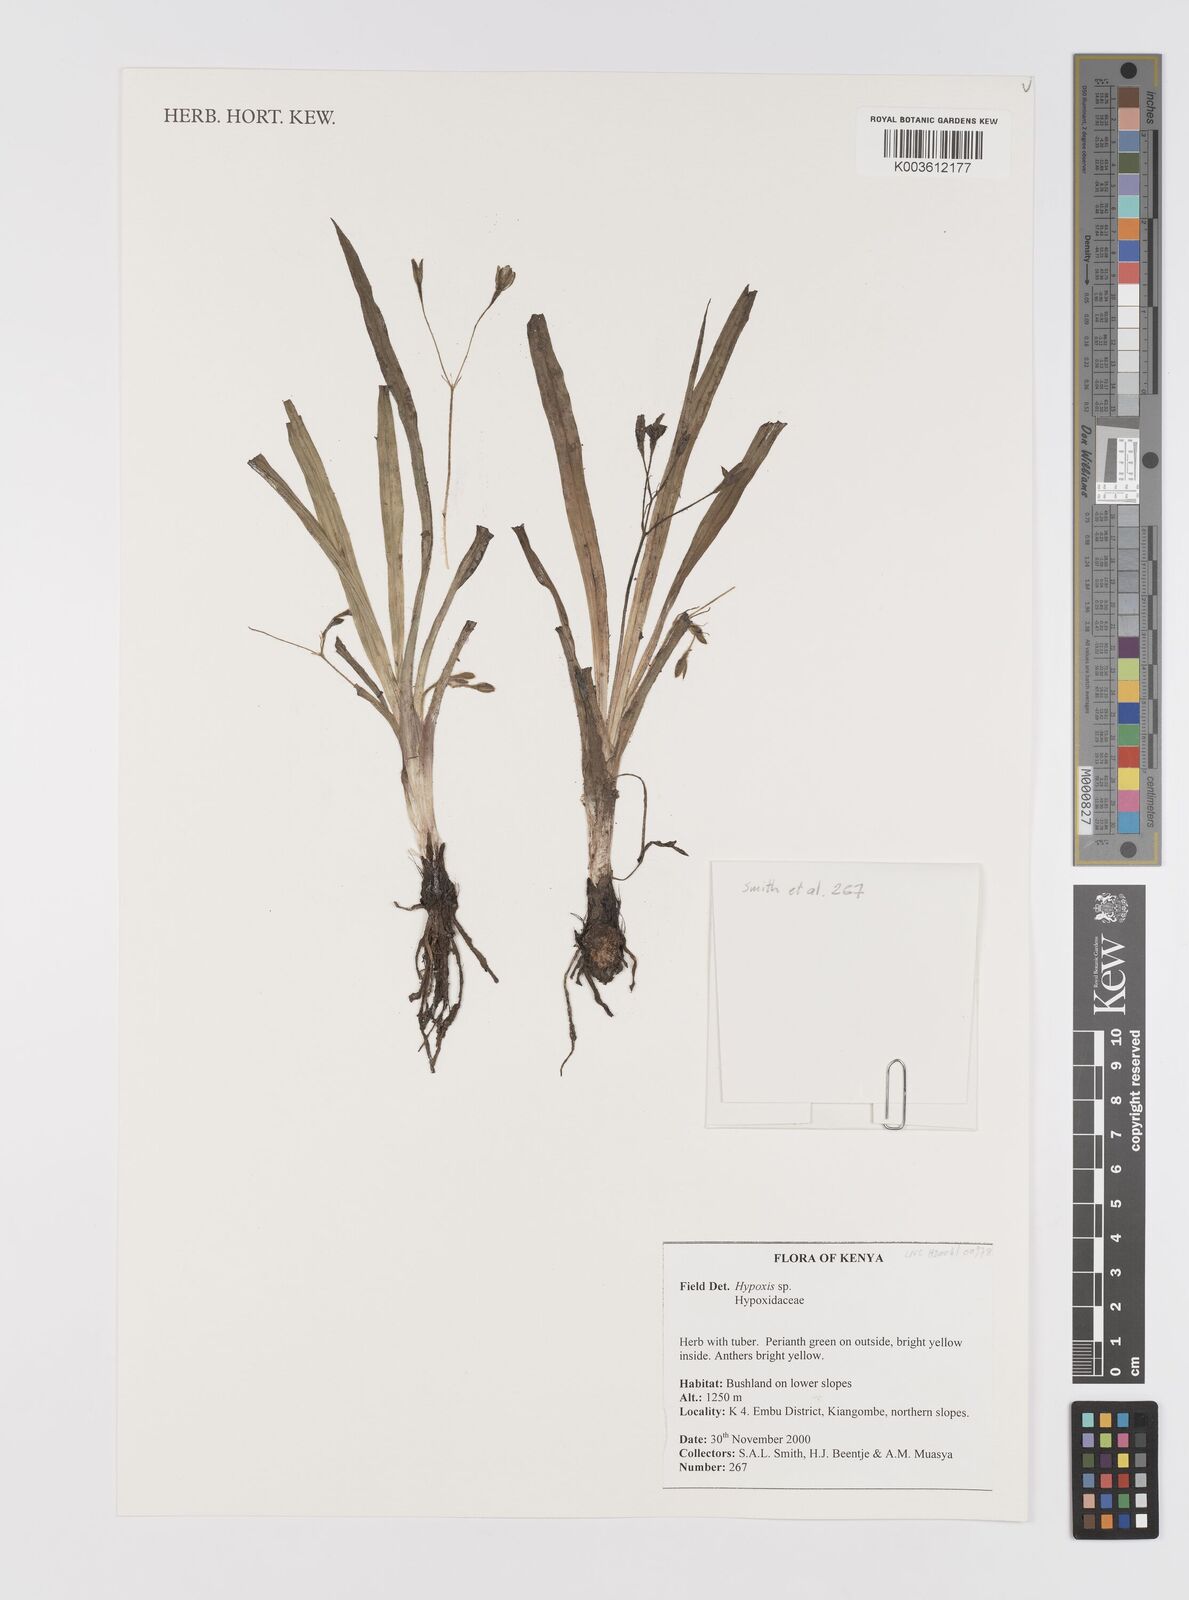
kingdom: Plantae
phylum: Tracheophyta
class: Liliopsida
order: Asparagales
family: Hypoxidaceae
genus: Hypoxis
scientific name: Hypoxis
